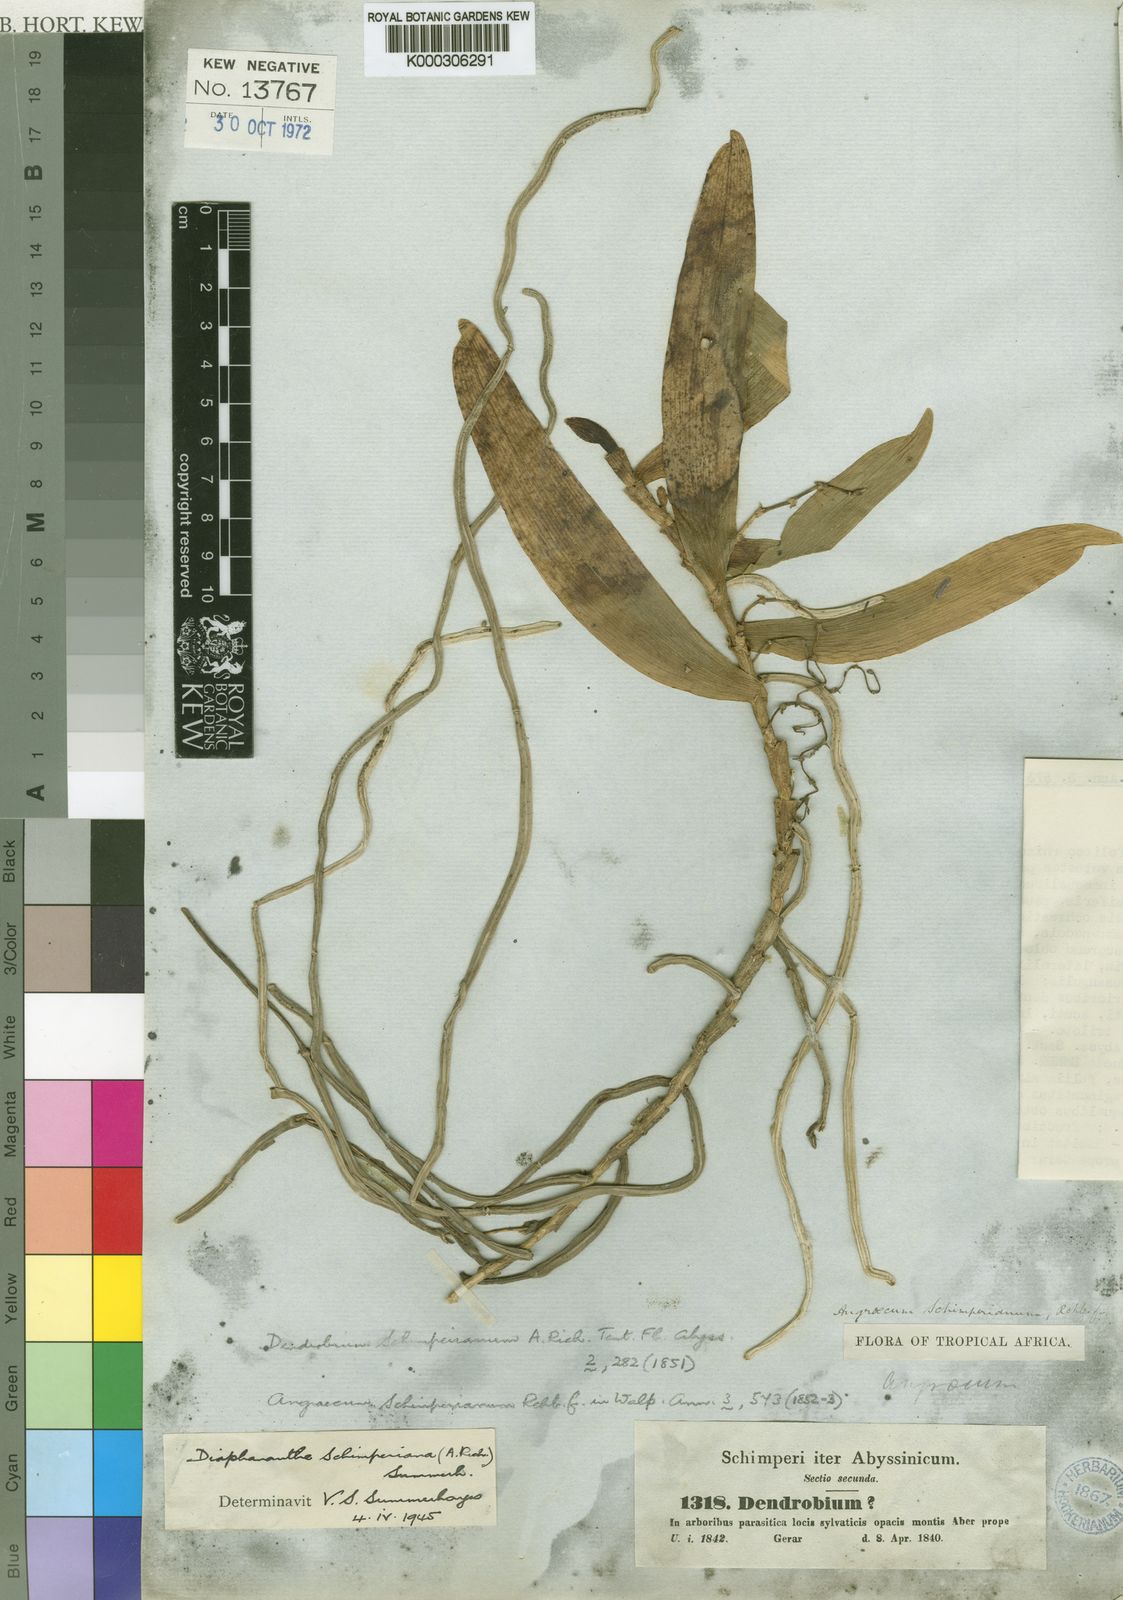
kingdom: Plantae
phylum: Tracheophyta
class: Liliopsida
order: Asparagales
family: Orchidaceae
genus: Rhipidoglossum
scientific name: Rhipidoglossum schimperianum
